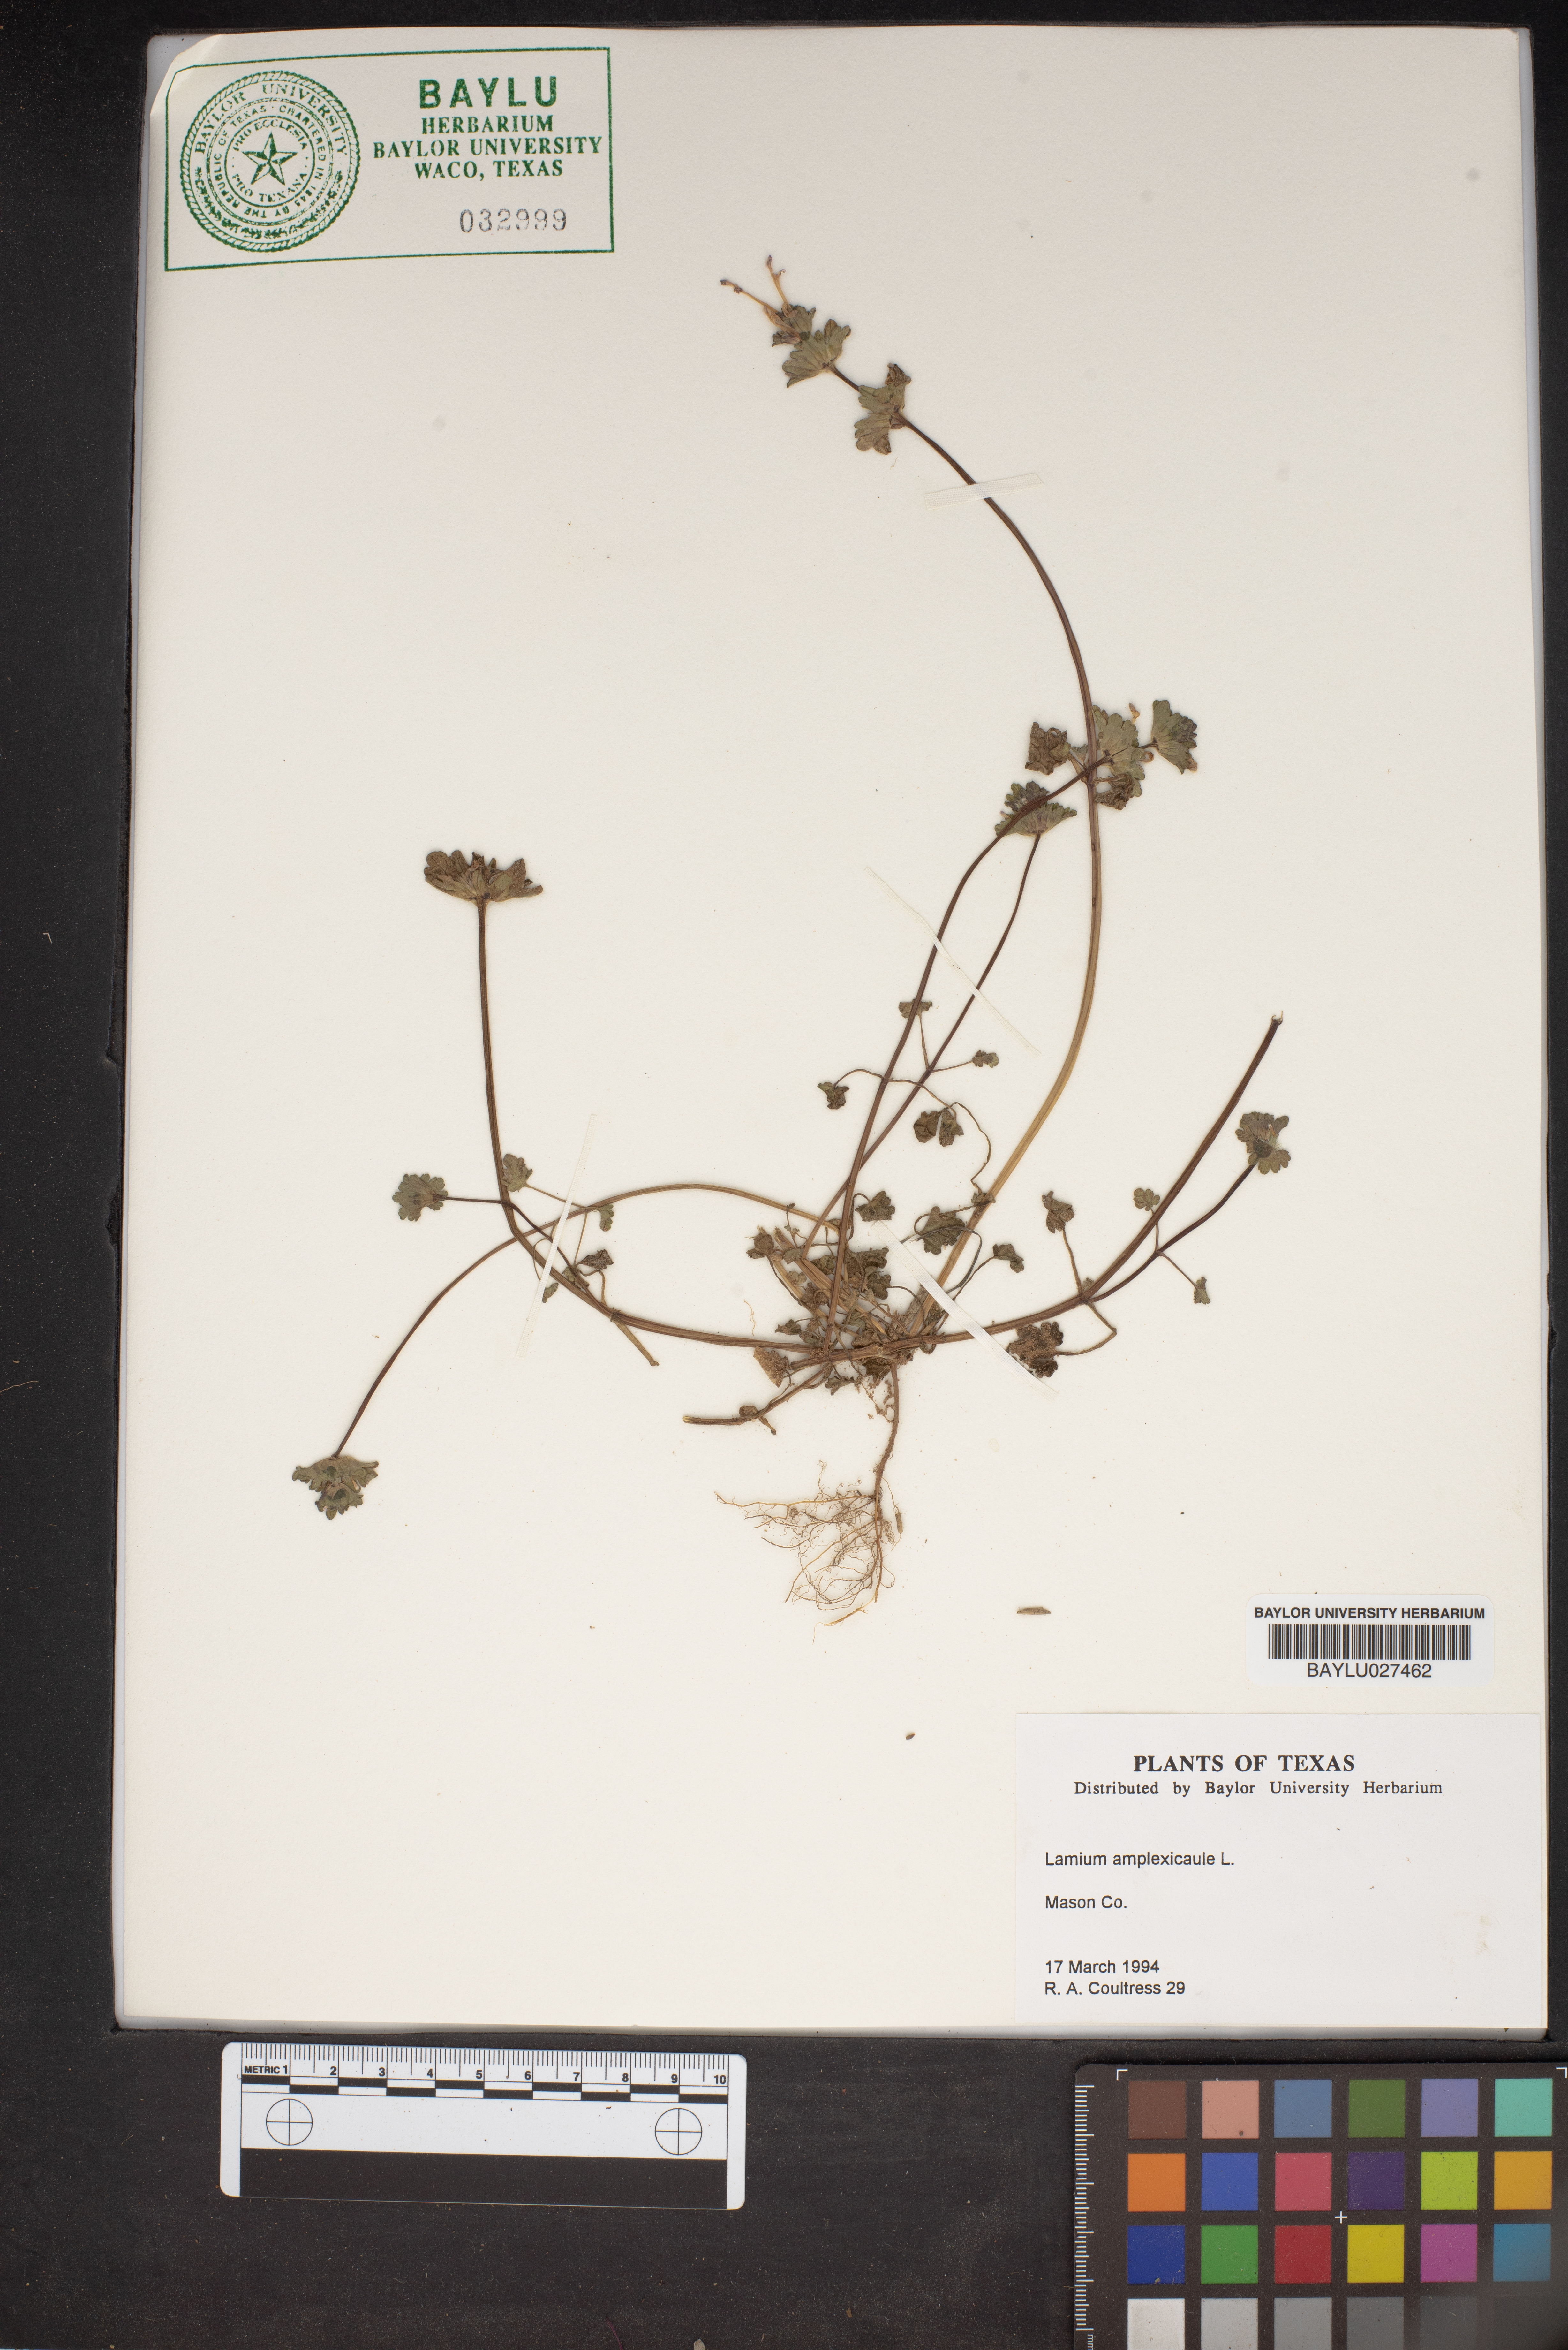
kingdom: Plantae
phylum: Tracheophyta
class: Magnoliopsida
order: Lamiales
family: Lamiaceae
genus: Lamium
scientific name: Lamium amplexicaule
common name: Henbit dead-nettle
